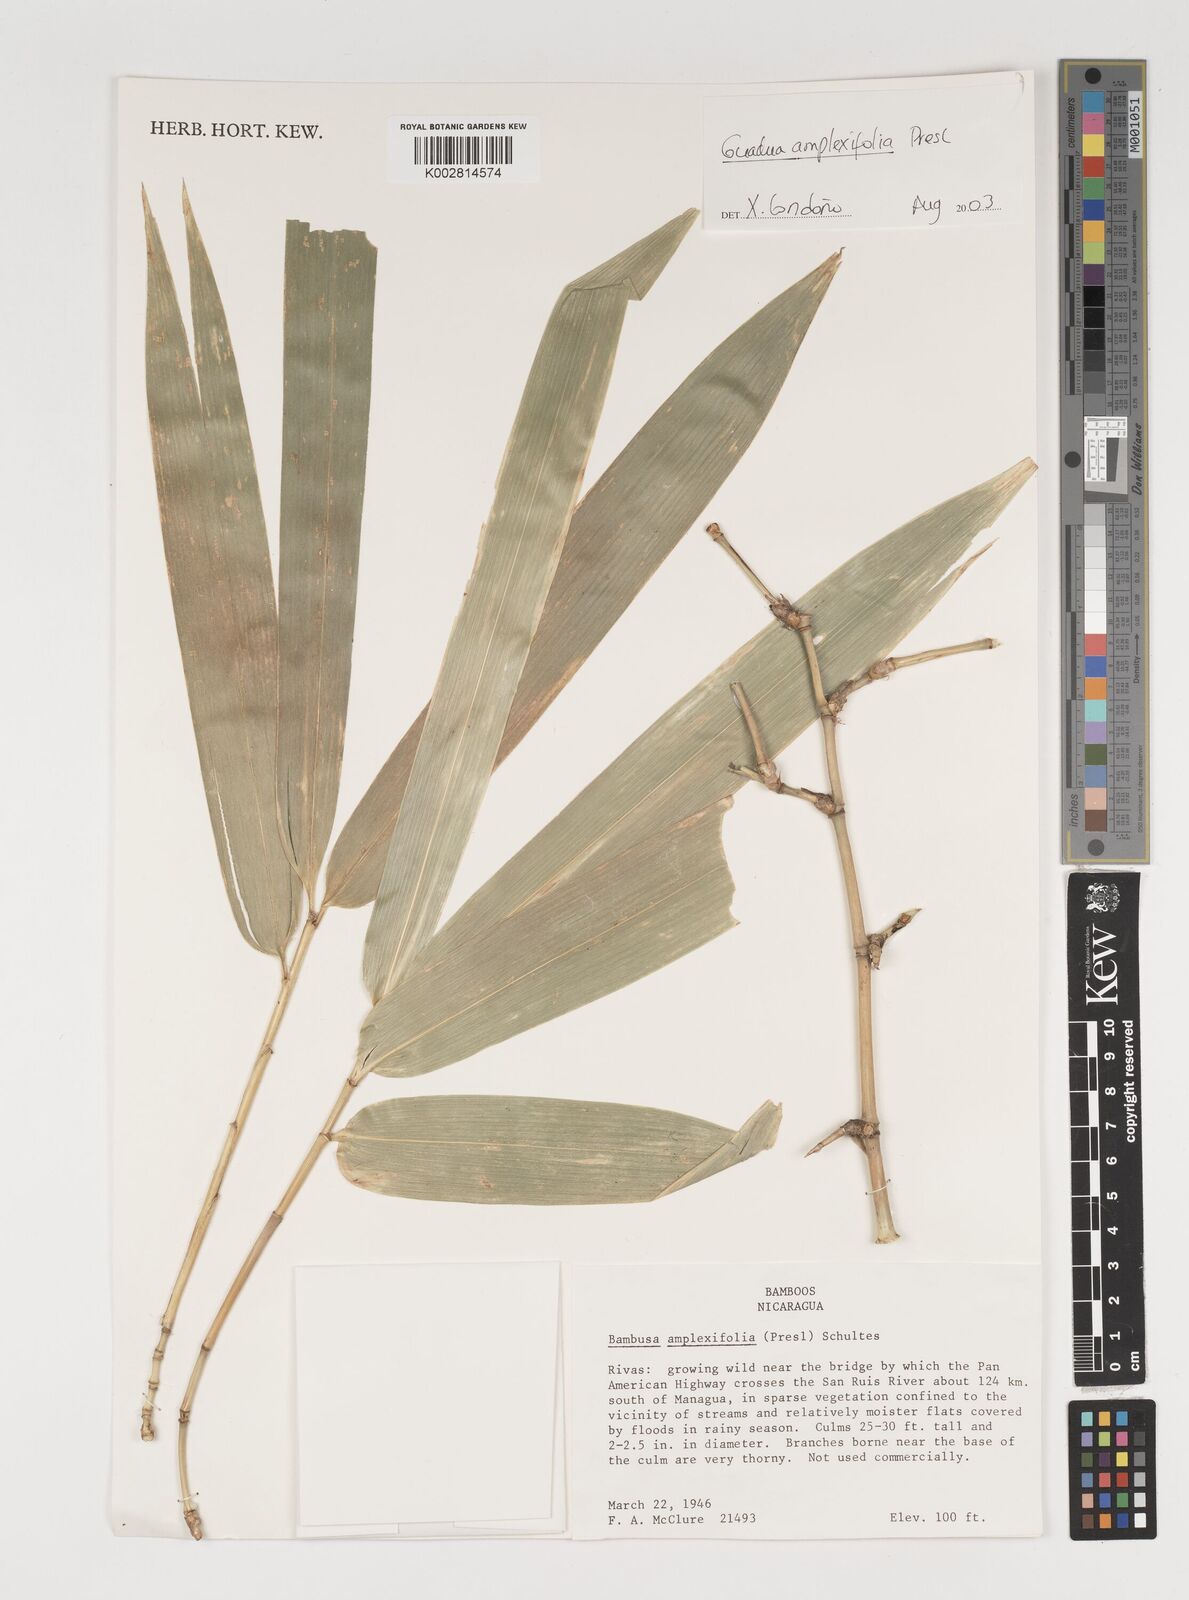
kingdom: Plantae
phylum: Tracheophyta
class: Liliopsida
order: Poales
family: Poaceae
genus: Guadua
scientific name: Guadua amplexifolia
